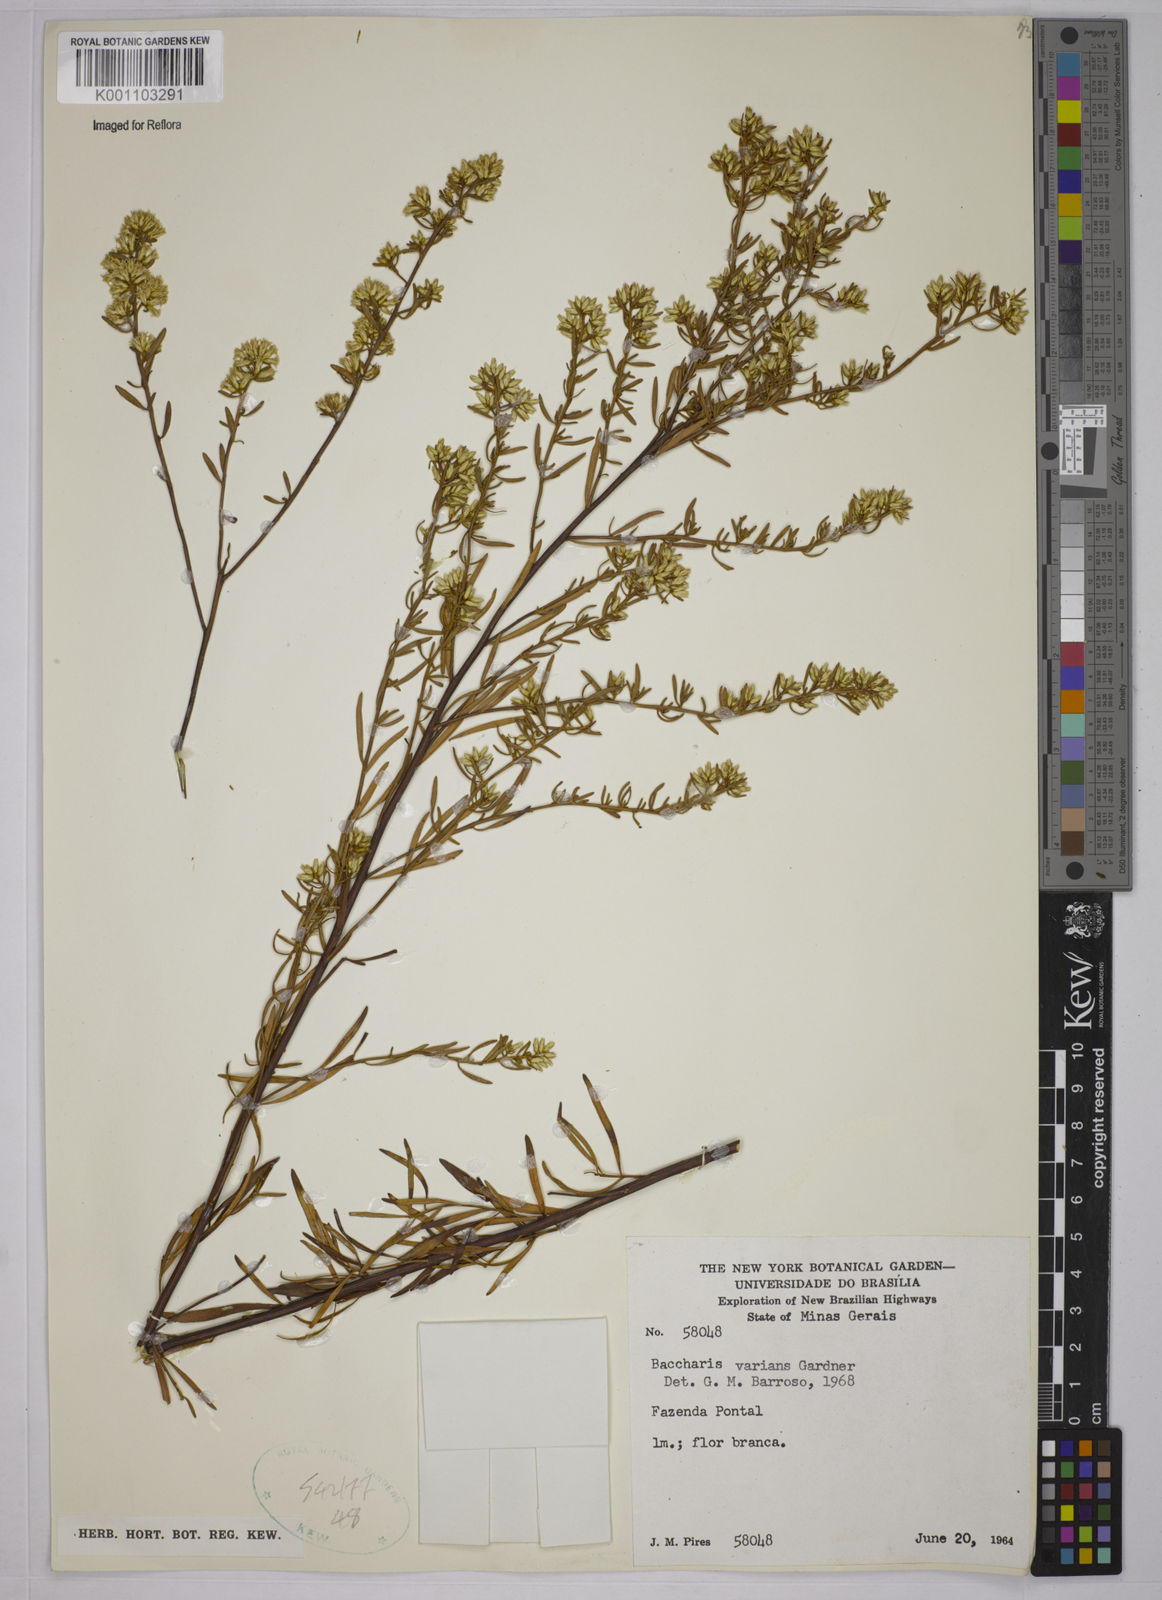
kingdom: Plantae
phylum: Tracheophyta
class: Magnoliopsida
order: Asterales
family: Asteraceae
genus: Baccharis
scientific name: Baccharis varians
